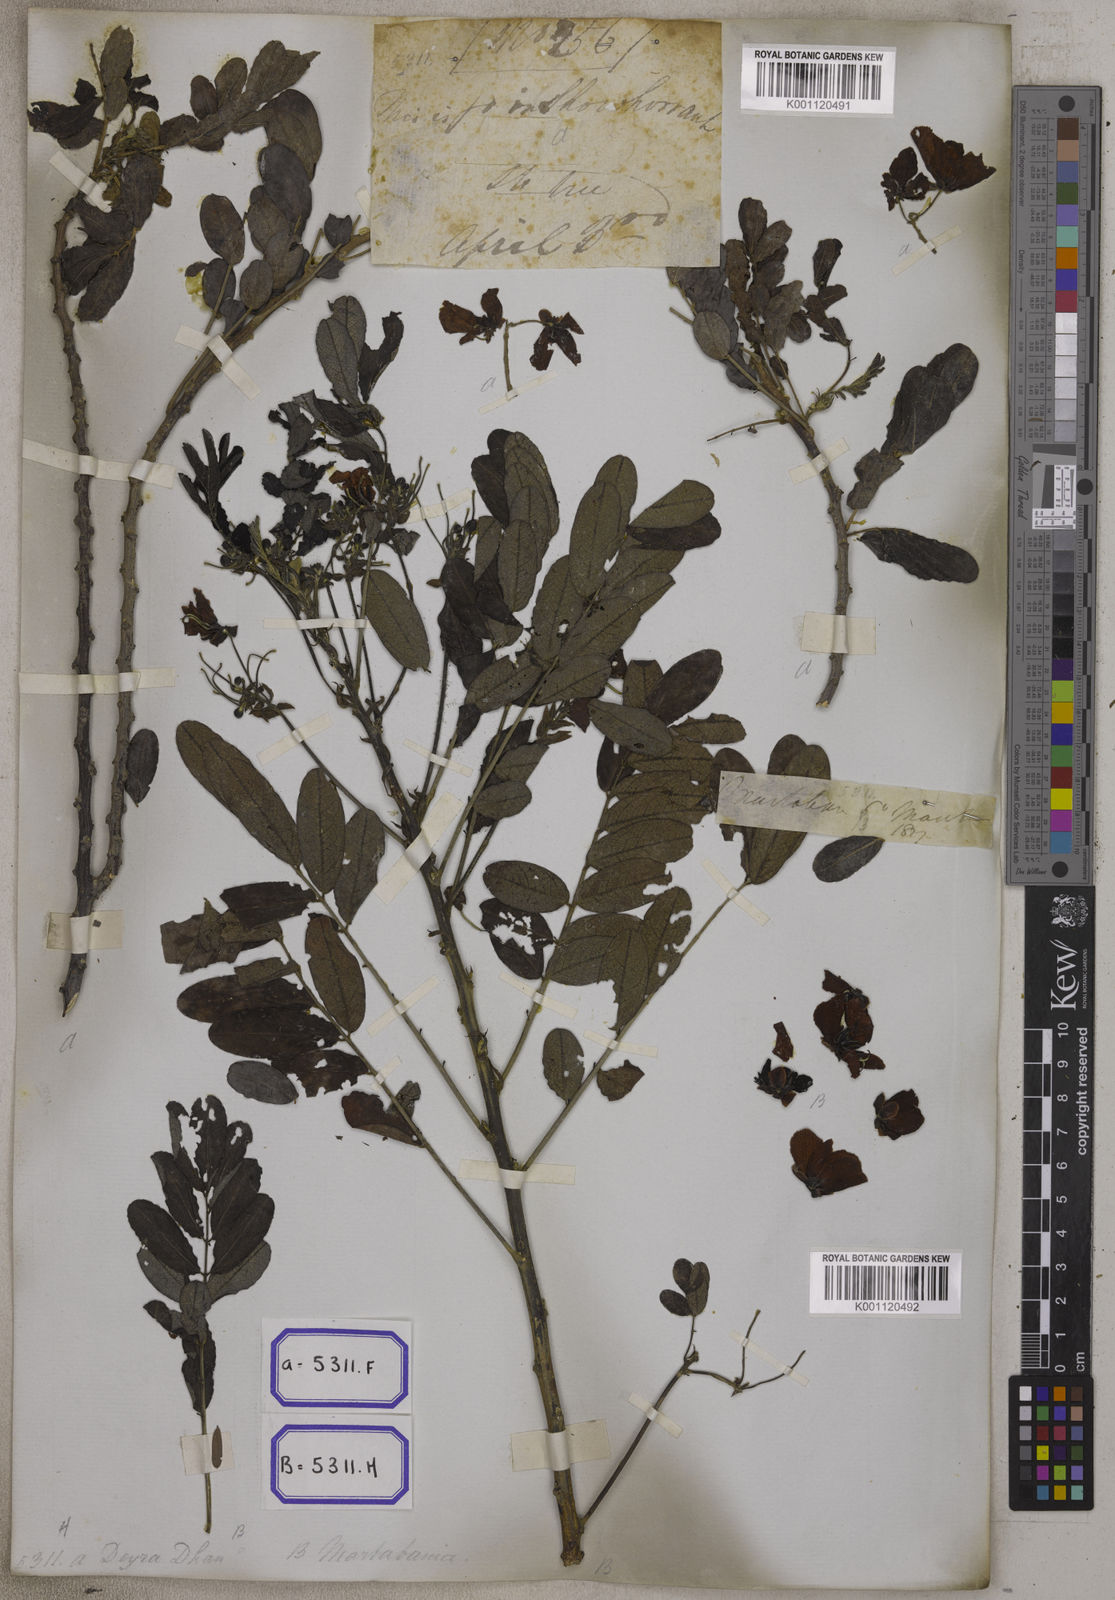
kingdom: Plantae
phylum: Tracheophyta
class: Magnoliopsida
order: Fabales
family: Fabaceae
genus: Senna
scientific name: Senna surattensis
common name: Glossy shower
